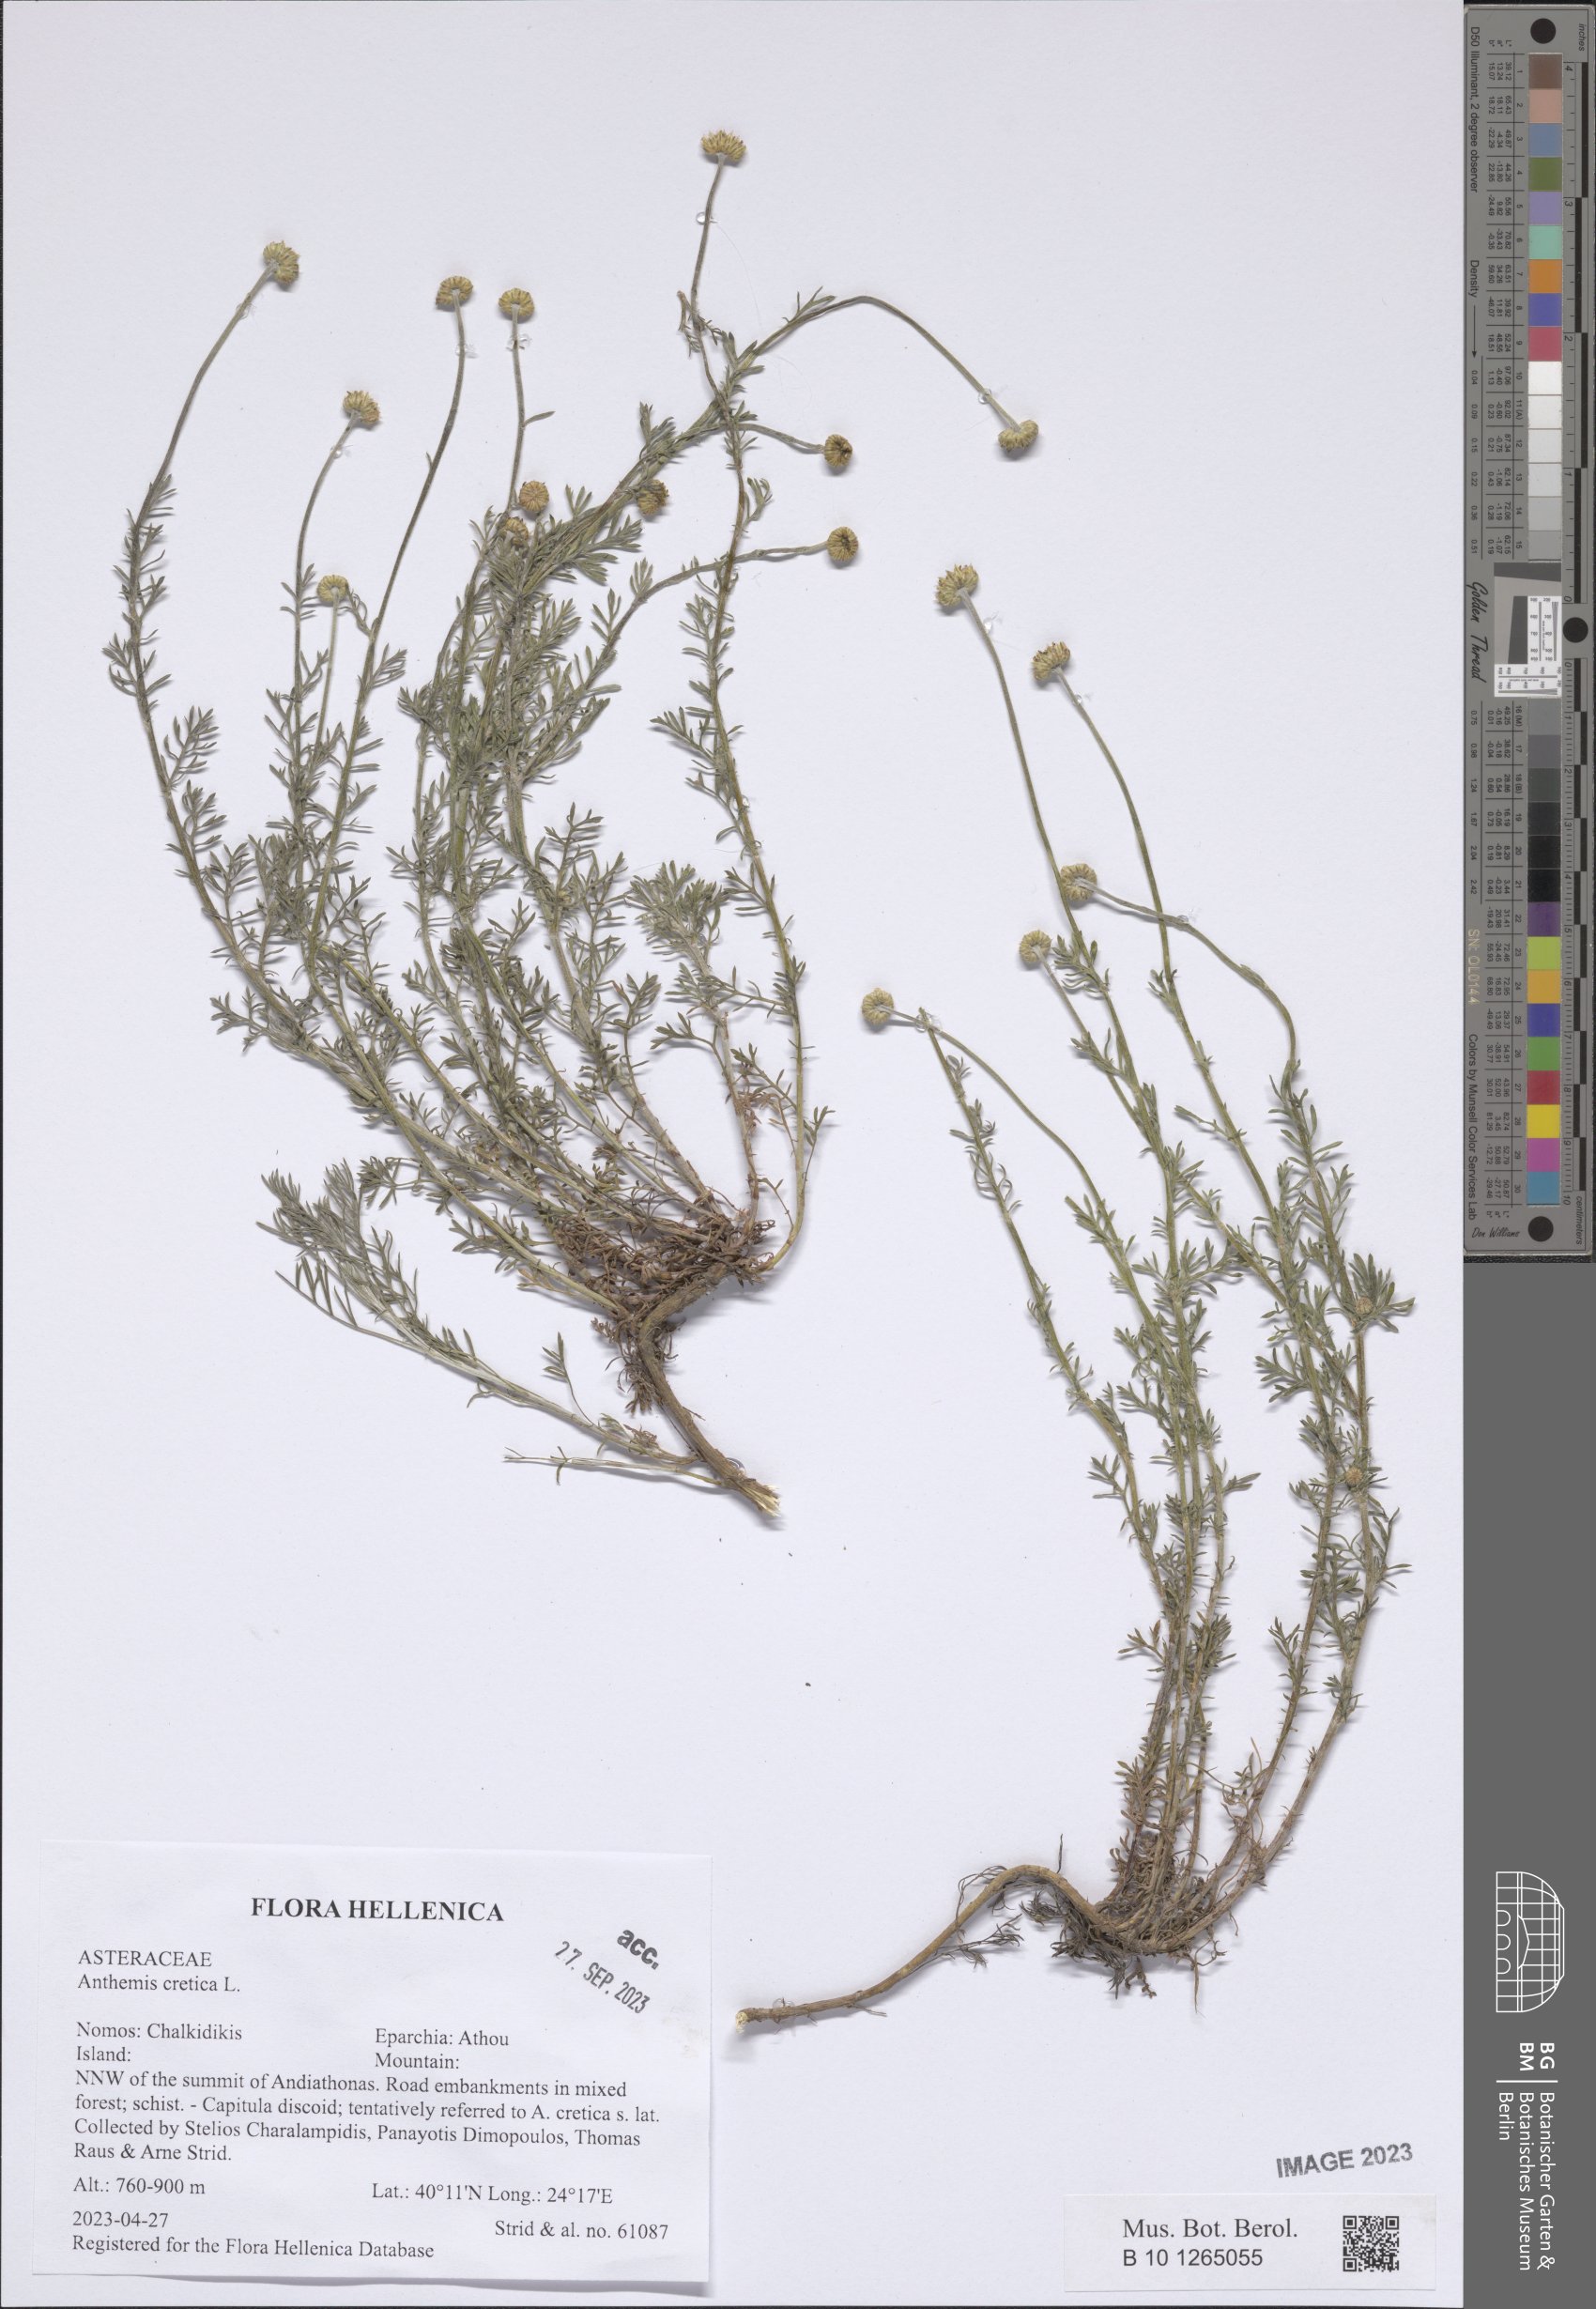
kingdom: Plantae
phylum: Tracheophyta
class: Magnoliopsida
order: Asterales
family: Asteraceae
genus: Anthemis
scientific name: Anthemis cretica
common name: Mountain dog-daisy
